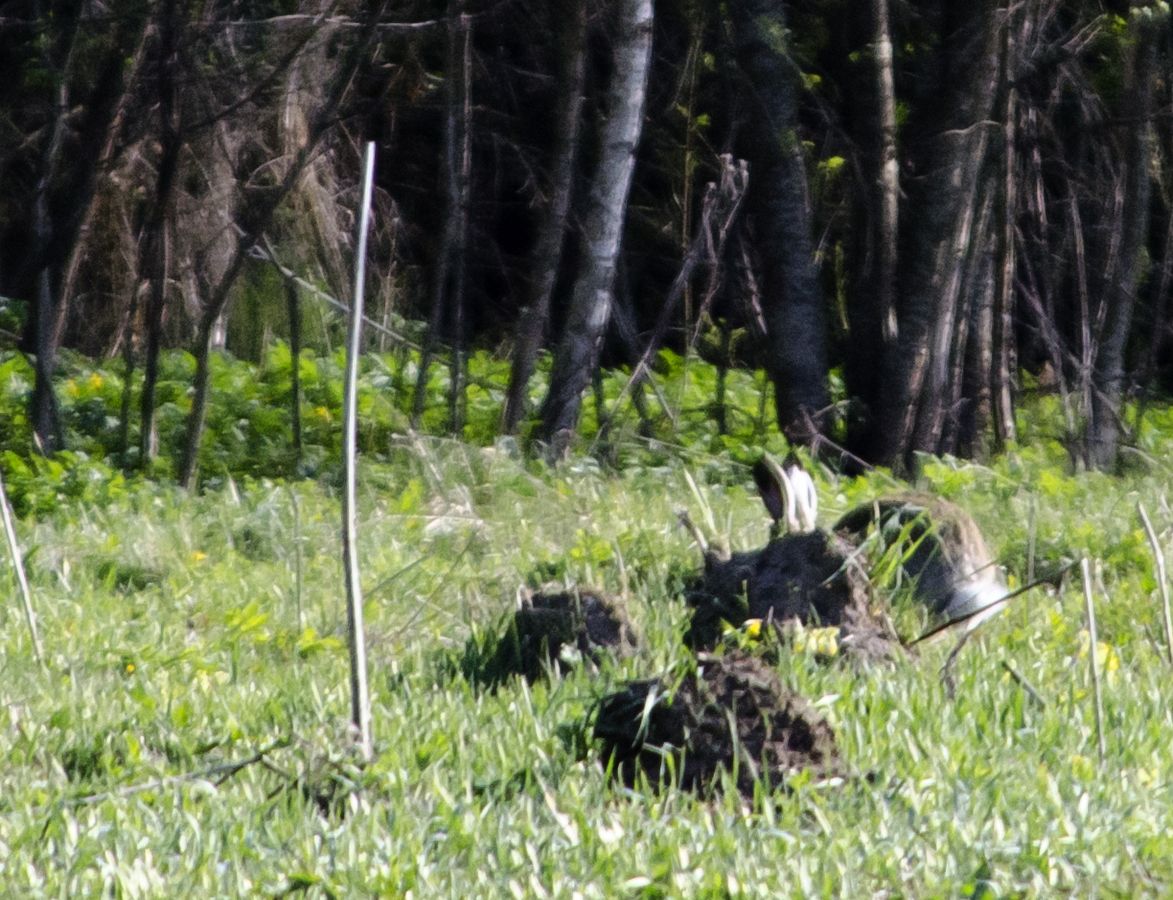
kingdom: Animalia
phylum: Chordata
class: Mammalia
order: Lagomorpha
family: Leporidae
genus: Lepus
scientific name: Lepus europaeus
